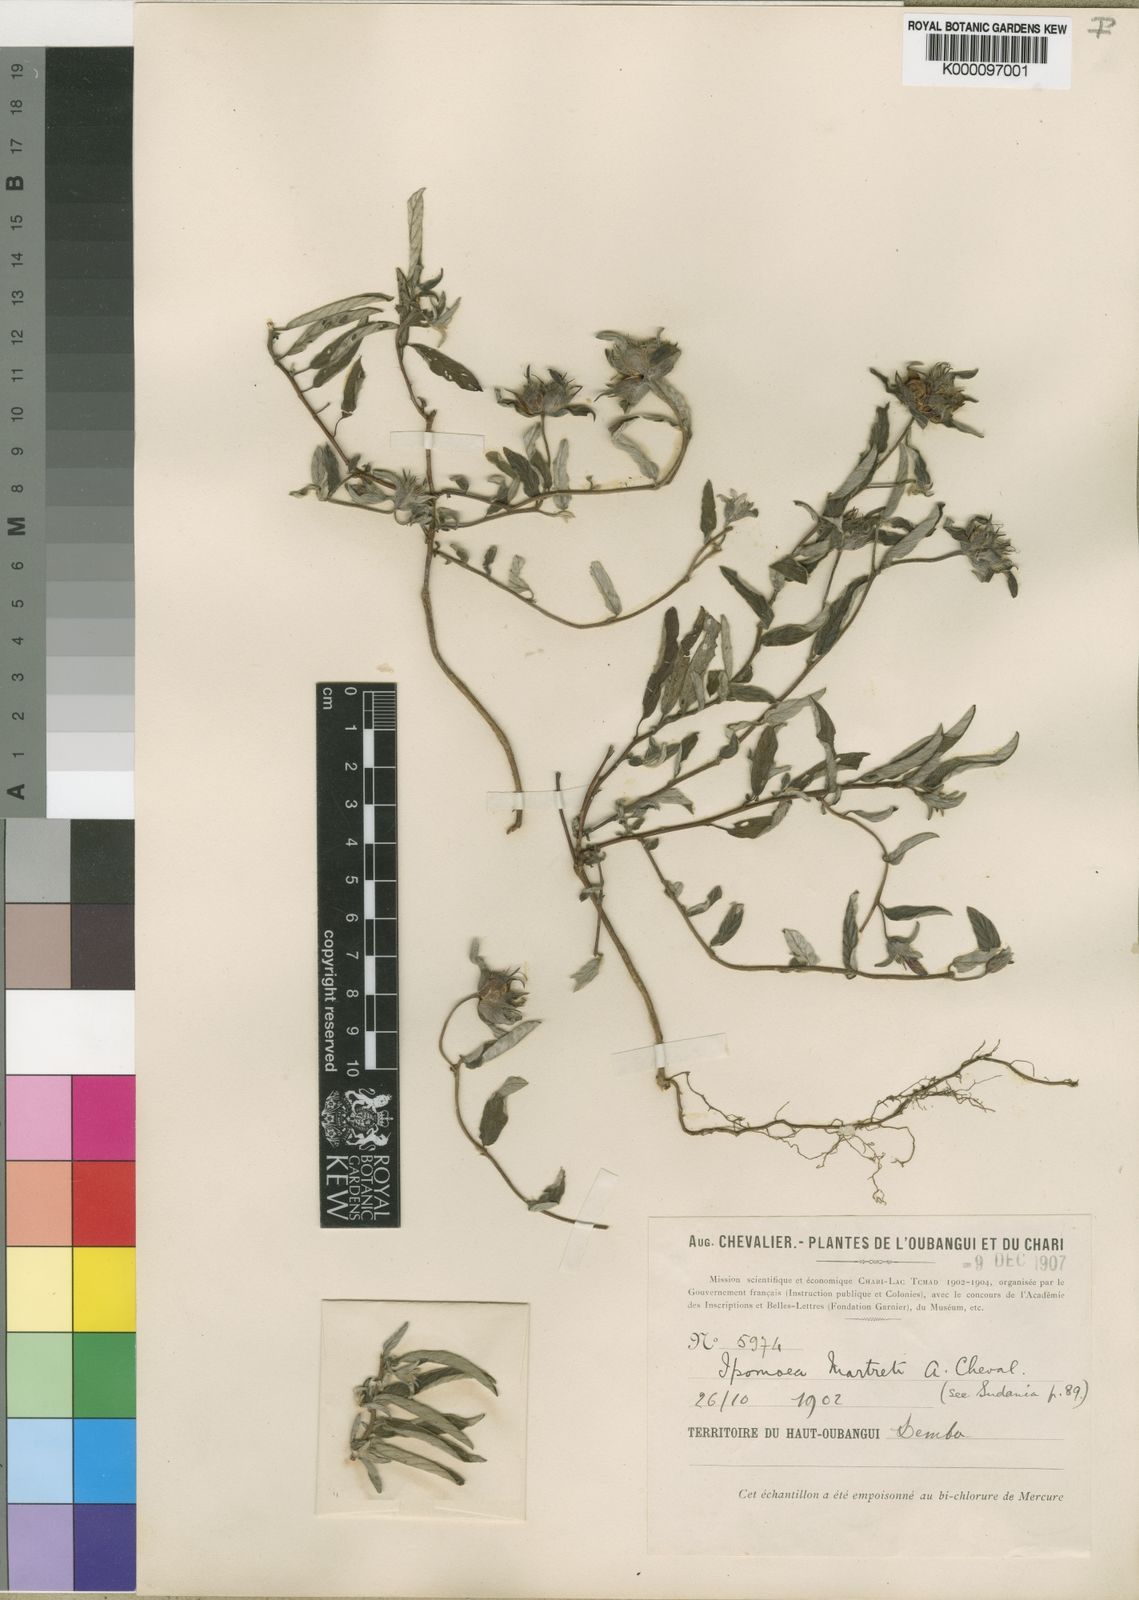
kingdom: Plantae
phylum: Tracheophyta
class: Magnoliopsida
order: Solanales
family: Convolvulaceae
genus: Ipomoea
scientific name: Ipomoea
